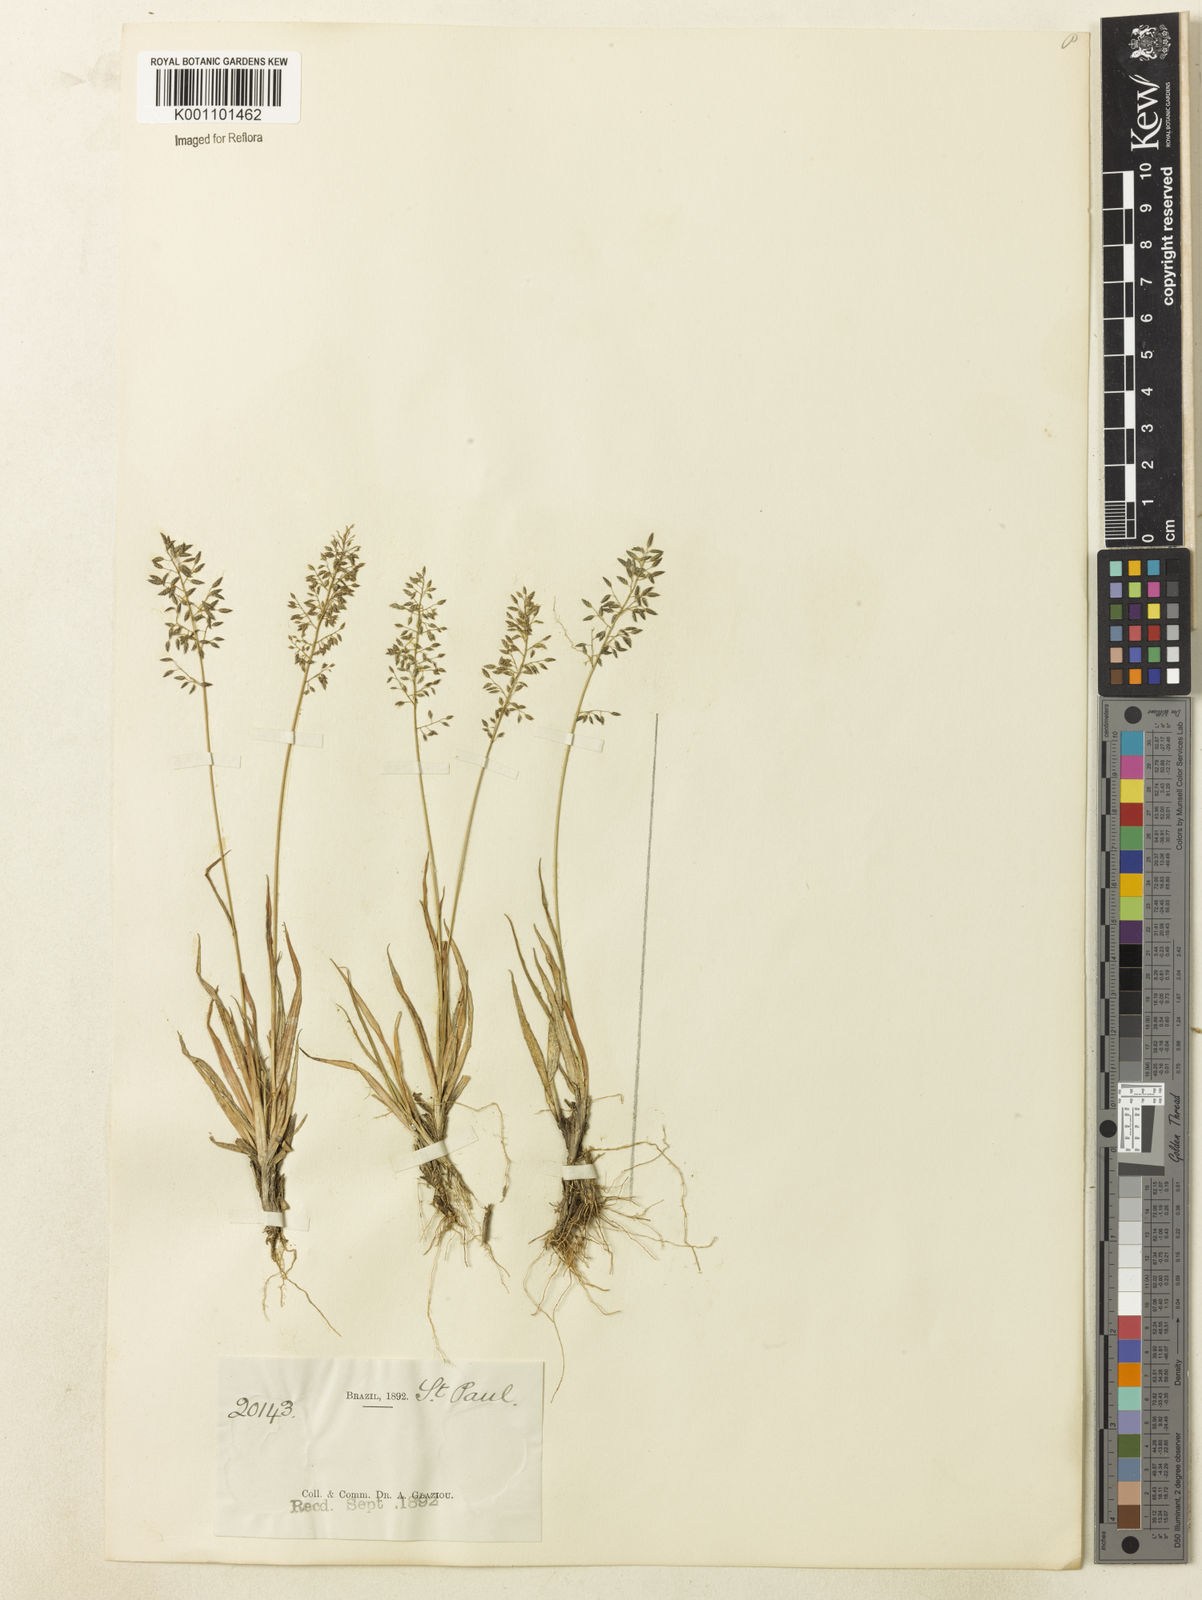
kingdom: Plantae
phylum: Tracheophyta
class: Liliopsida
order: Poales
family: Poaceae
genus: Eragrostis
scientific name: Eragrostis neesii
